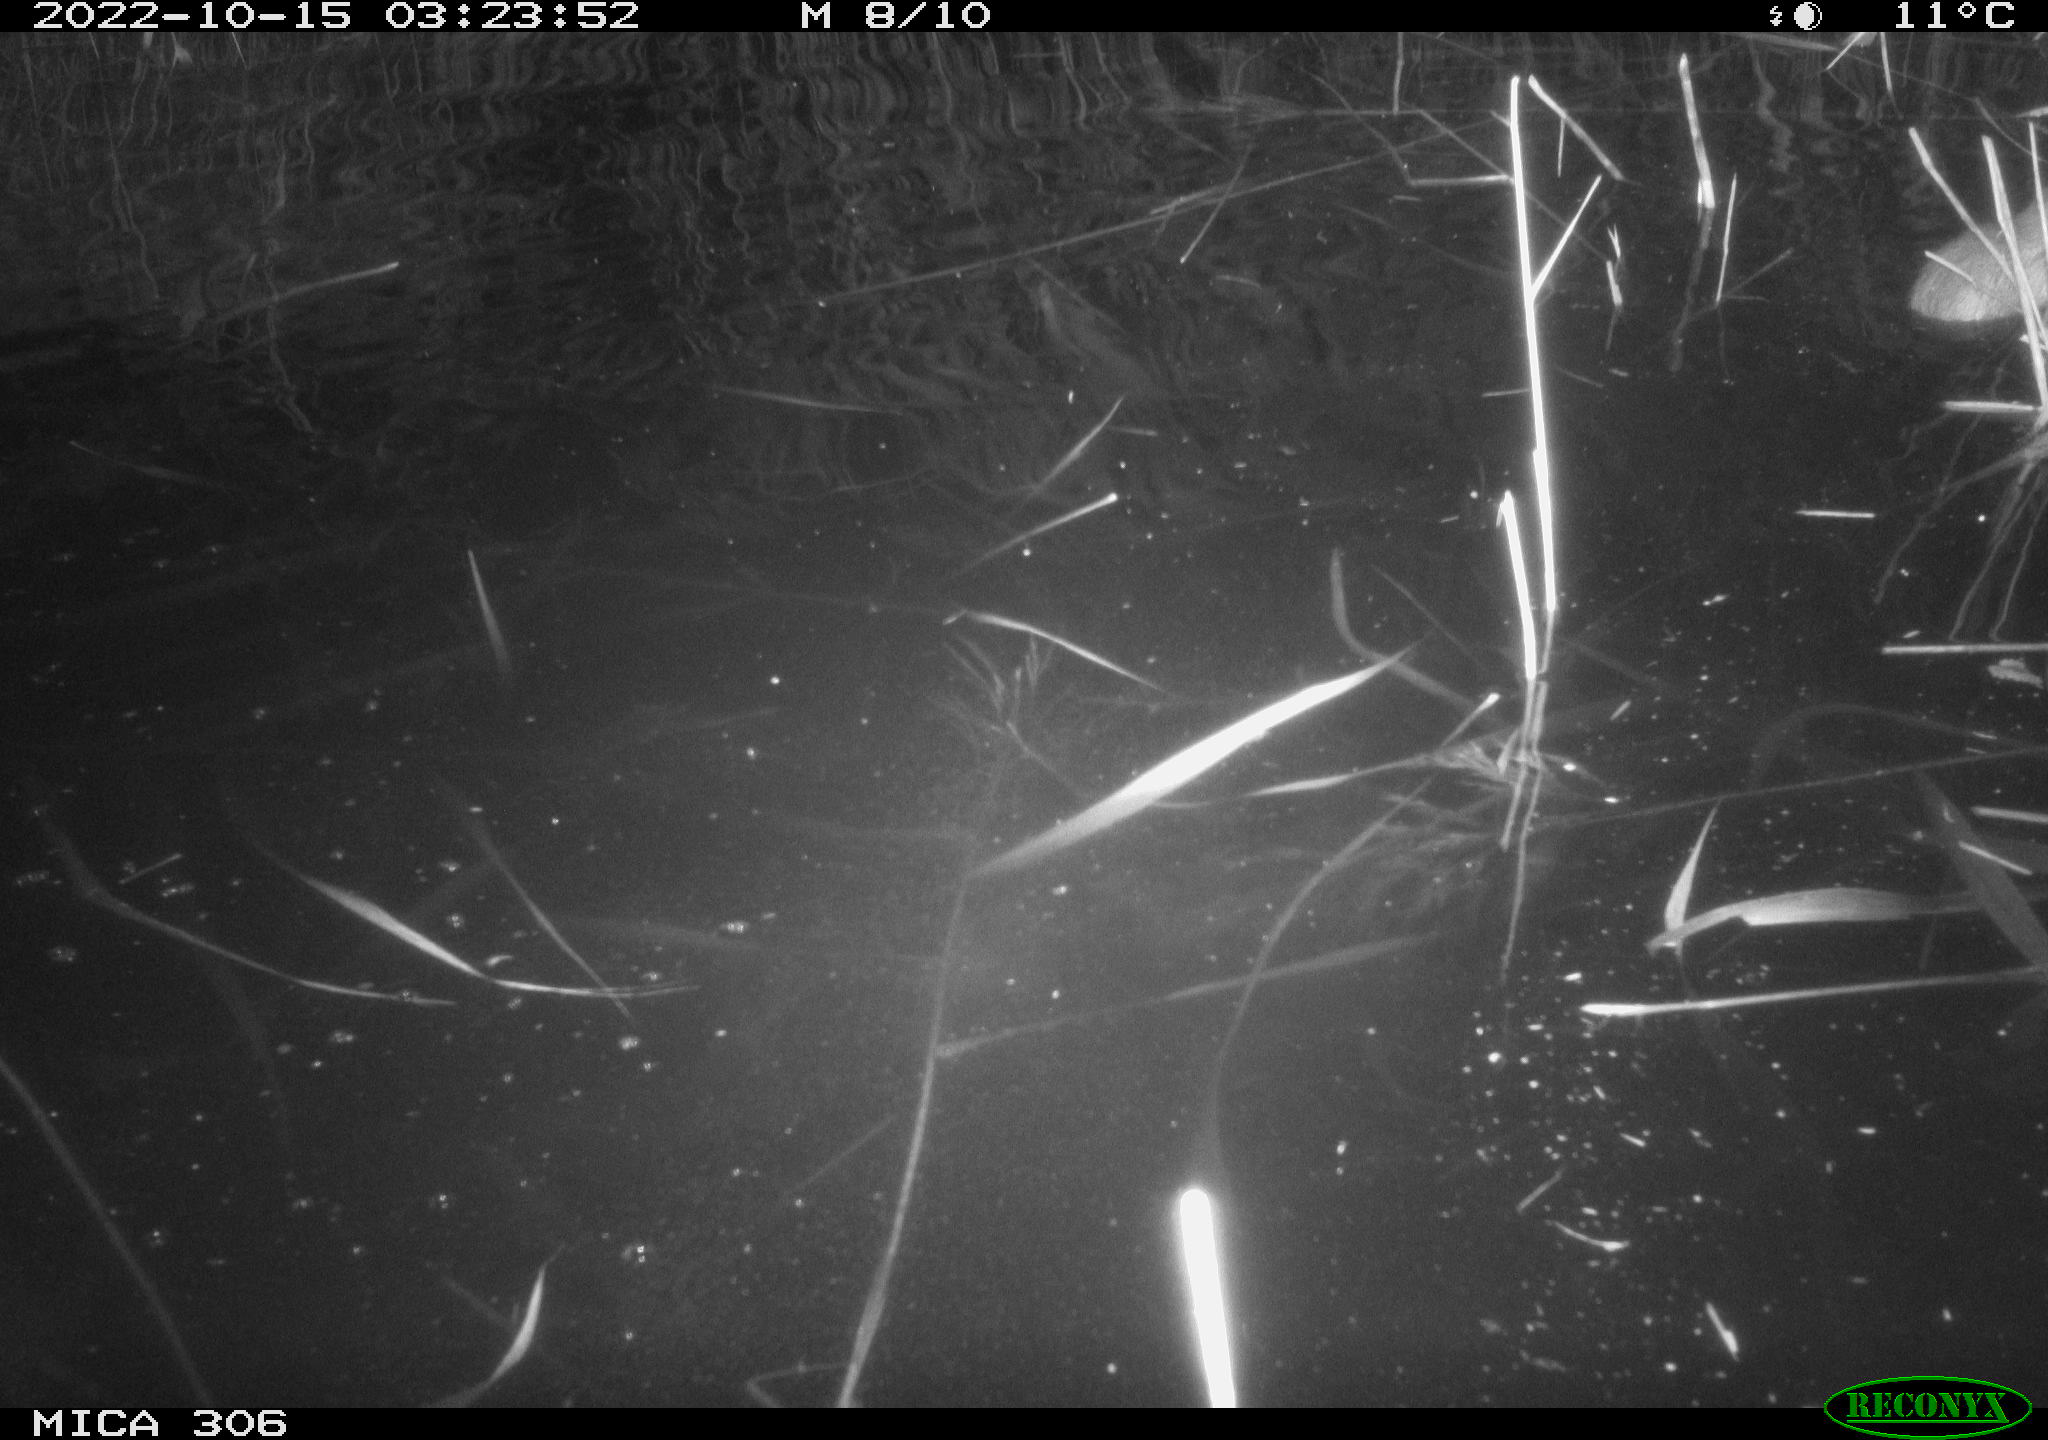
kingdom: Animalia
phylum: Chordata
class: Mammalia
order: Rodentia
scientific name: Rodentia
